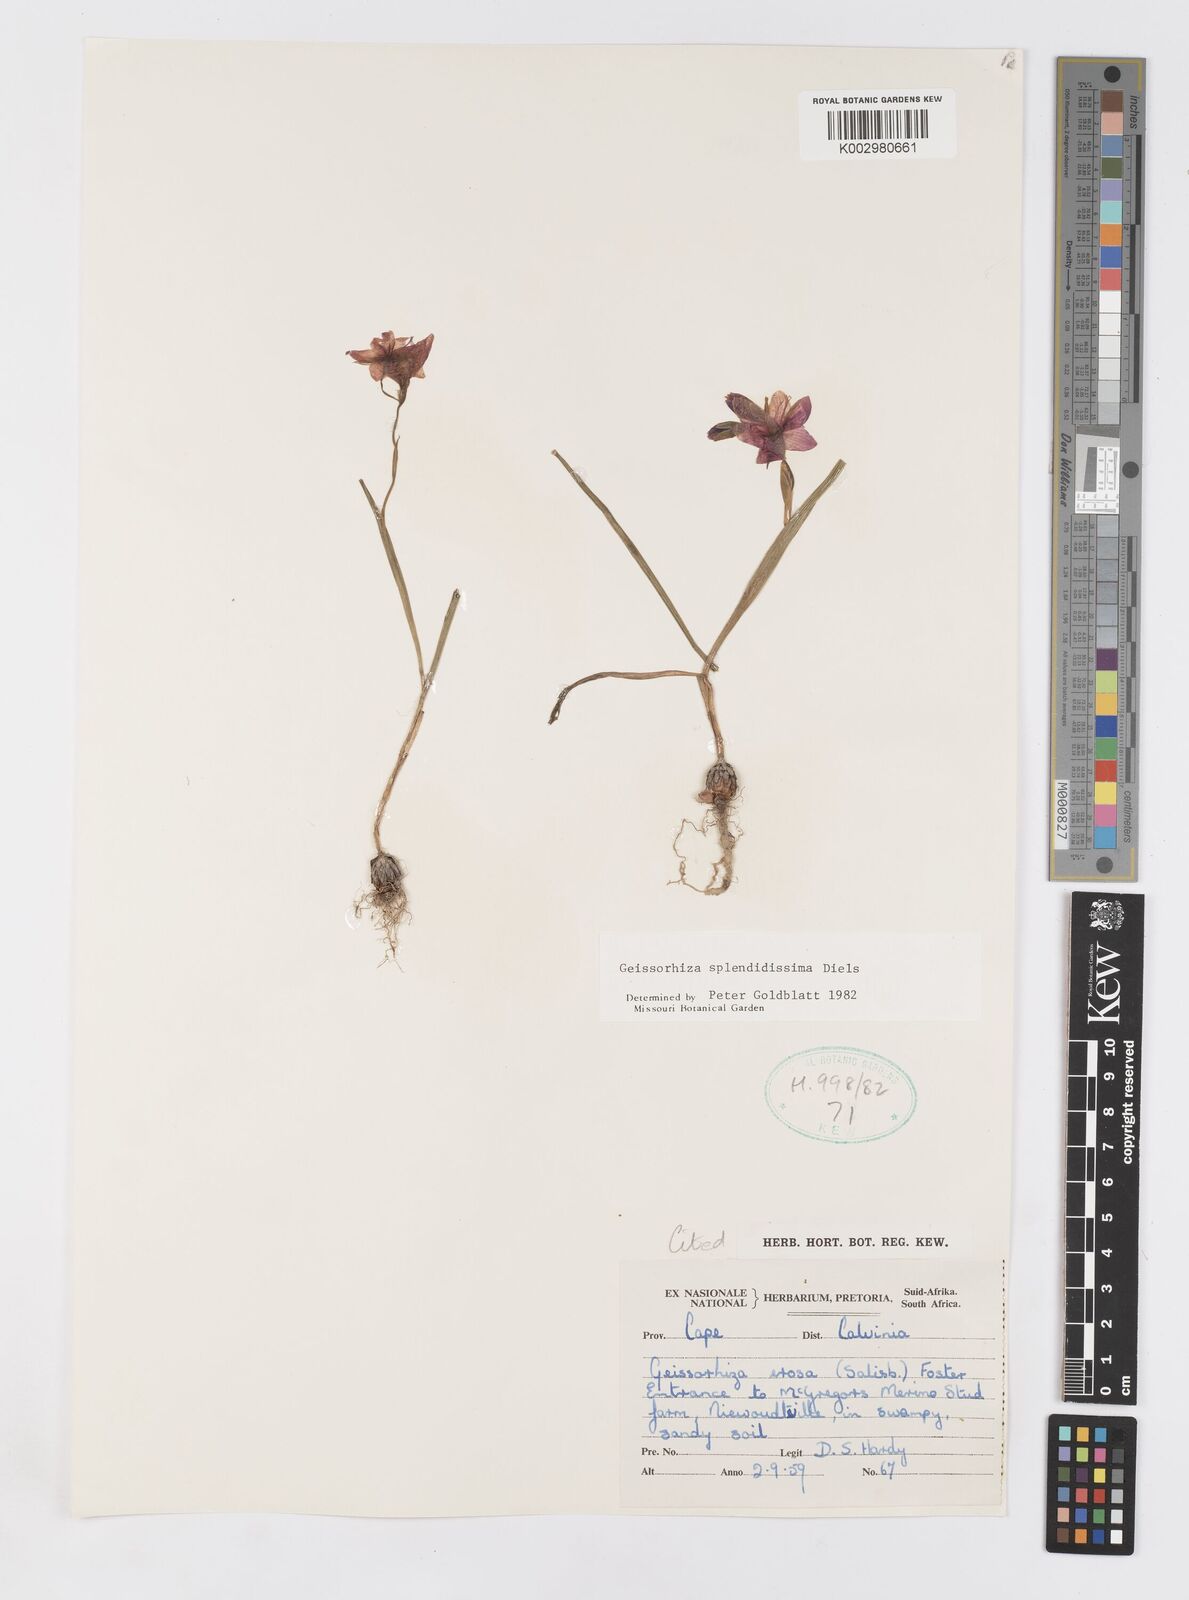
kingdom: Plantae
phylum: Tracheophyta
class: Liliopsida
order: Asparagales
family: Iridaceae
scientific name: Iridaceae
